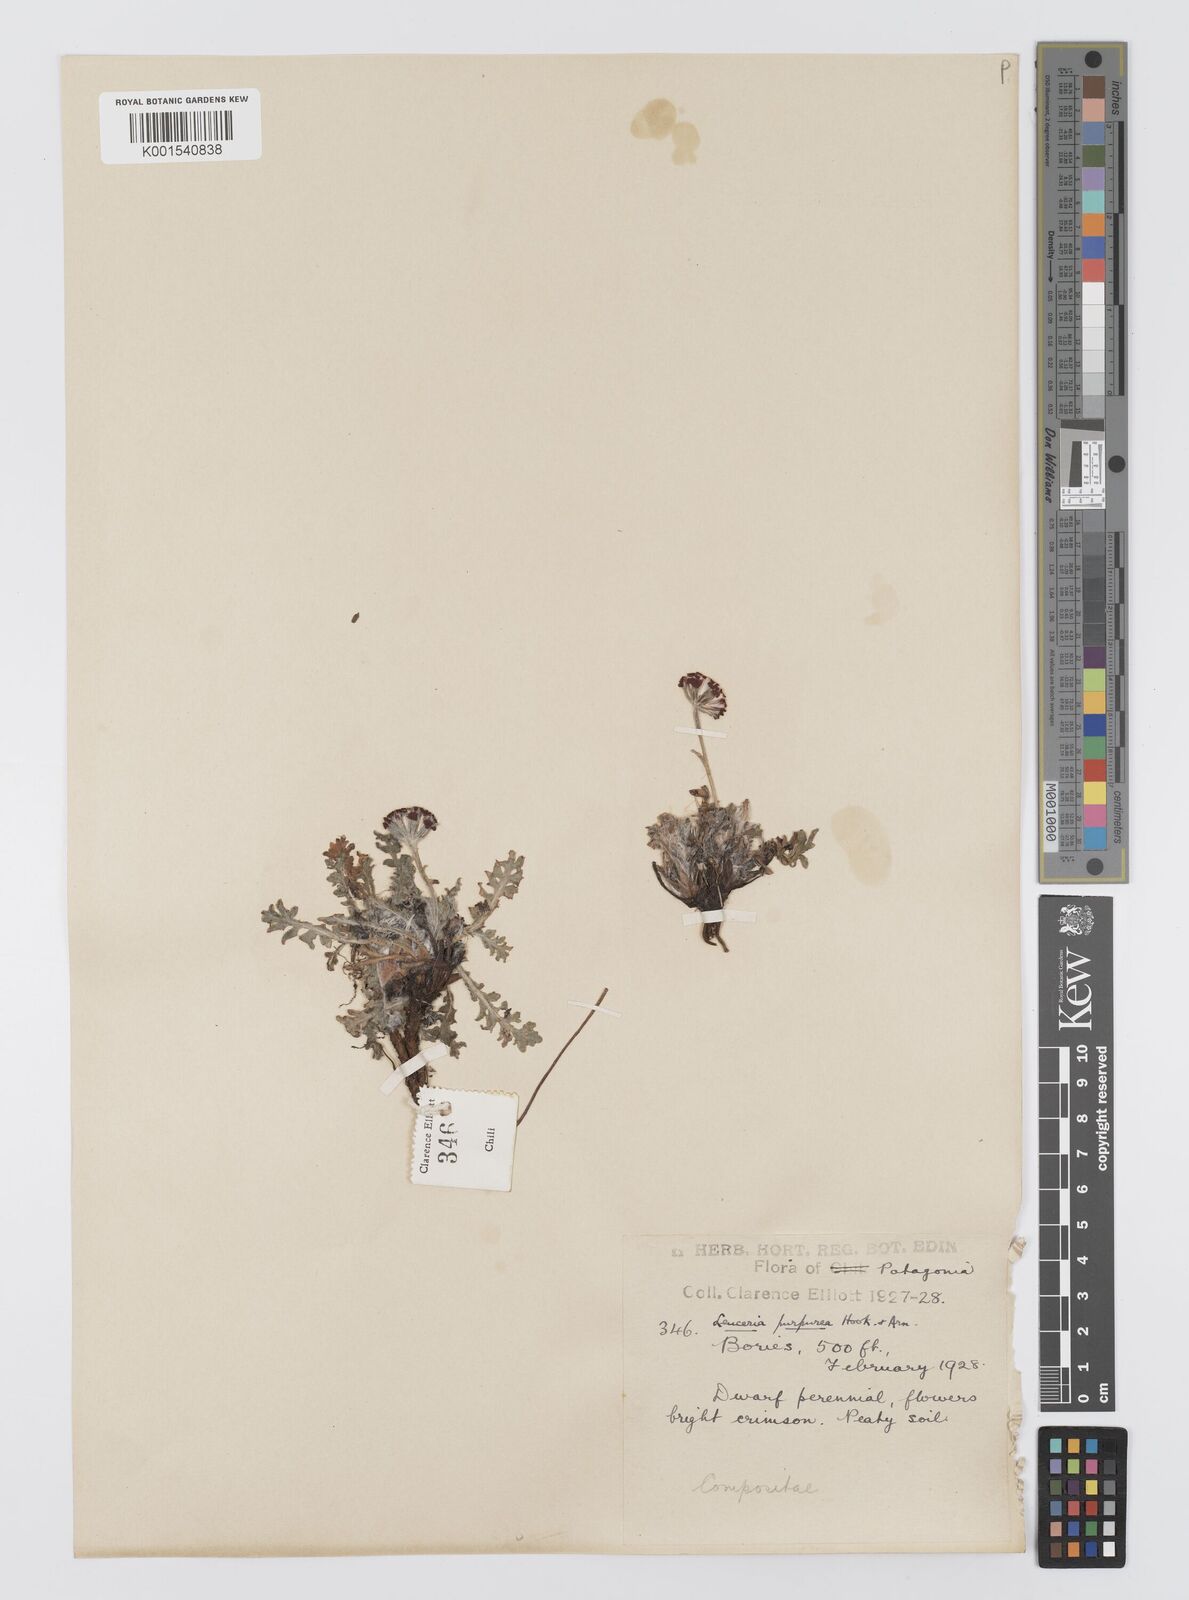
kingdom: Plantae
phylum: Tracheophyta
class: Magnoliopsida
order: Asterales
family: Asteraceae
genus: Leucheria
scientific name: Leucheria purpurea
